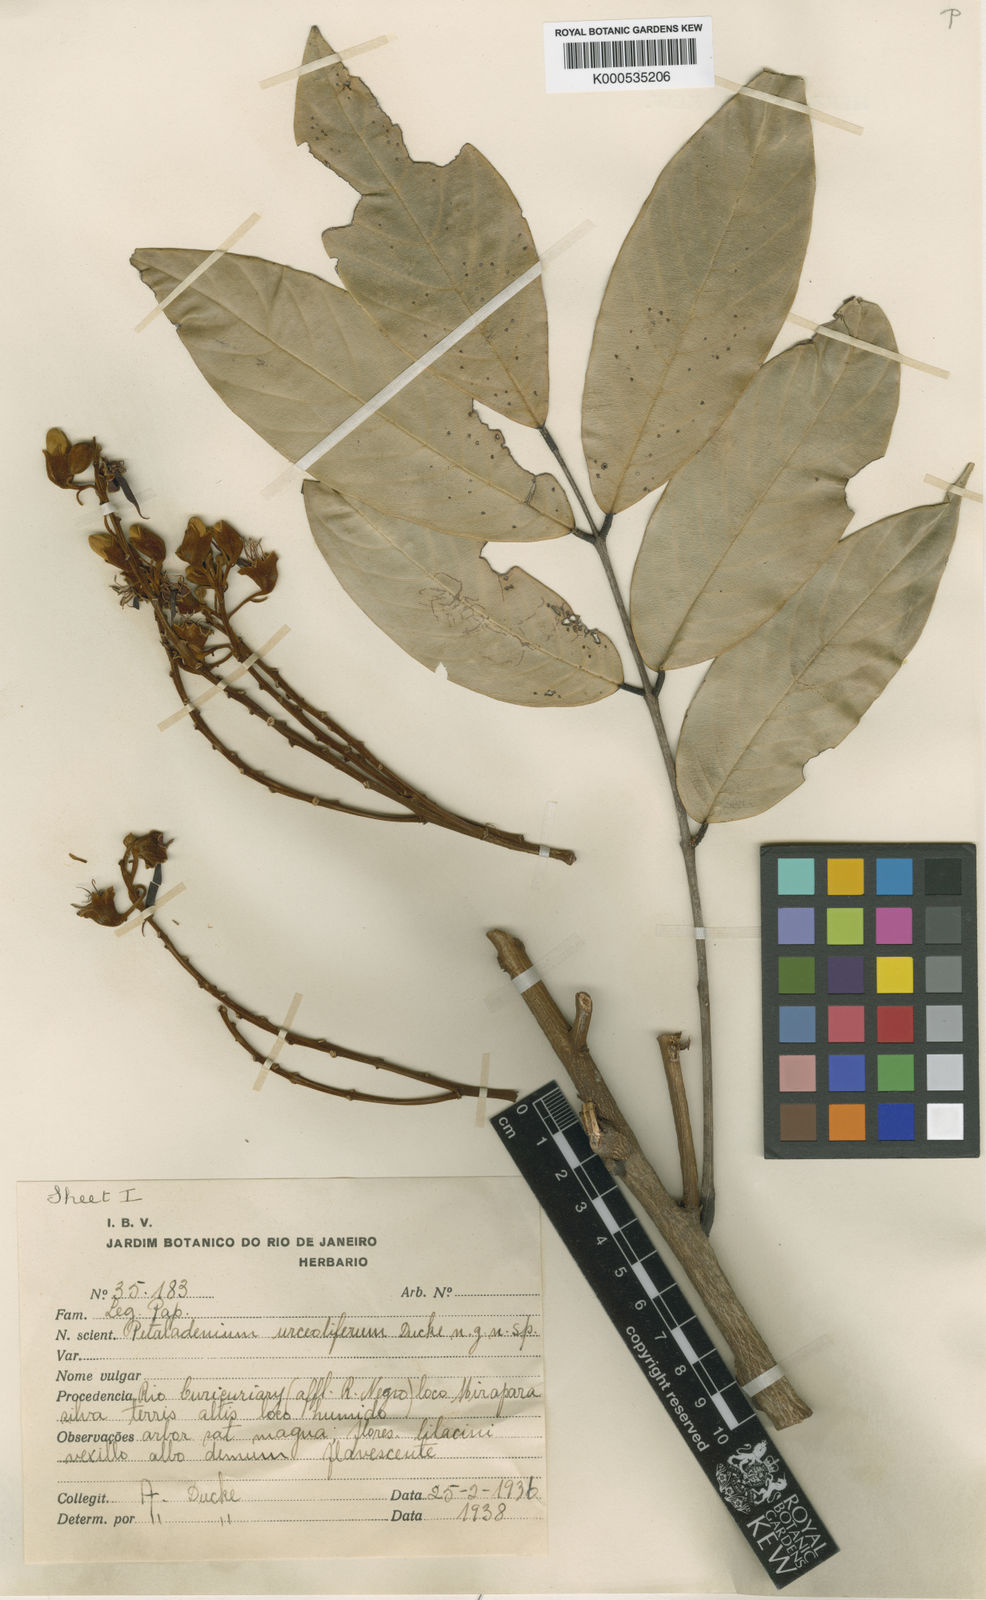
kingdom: Plantae
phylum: Tracheophyta
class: Magnoliopsida
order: Fabales
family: Fabaceae
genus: Petaladenium
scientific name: Petaladenium urceoliferum
